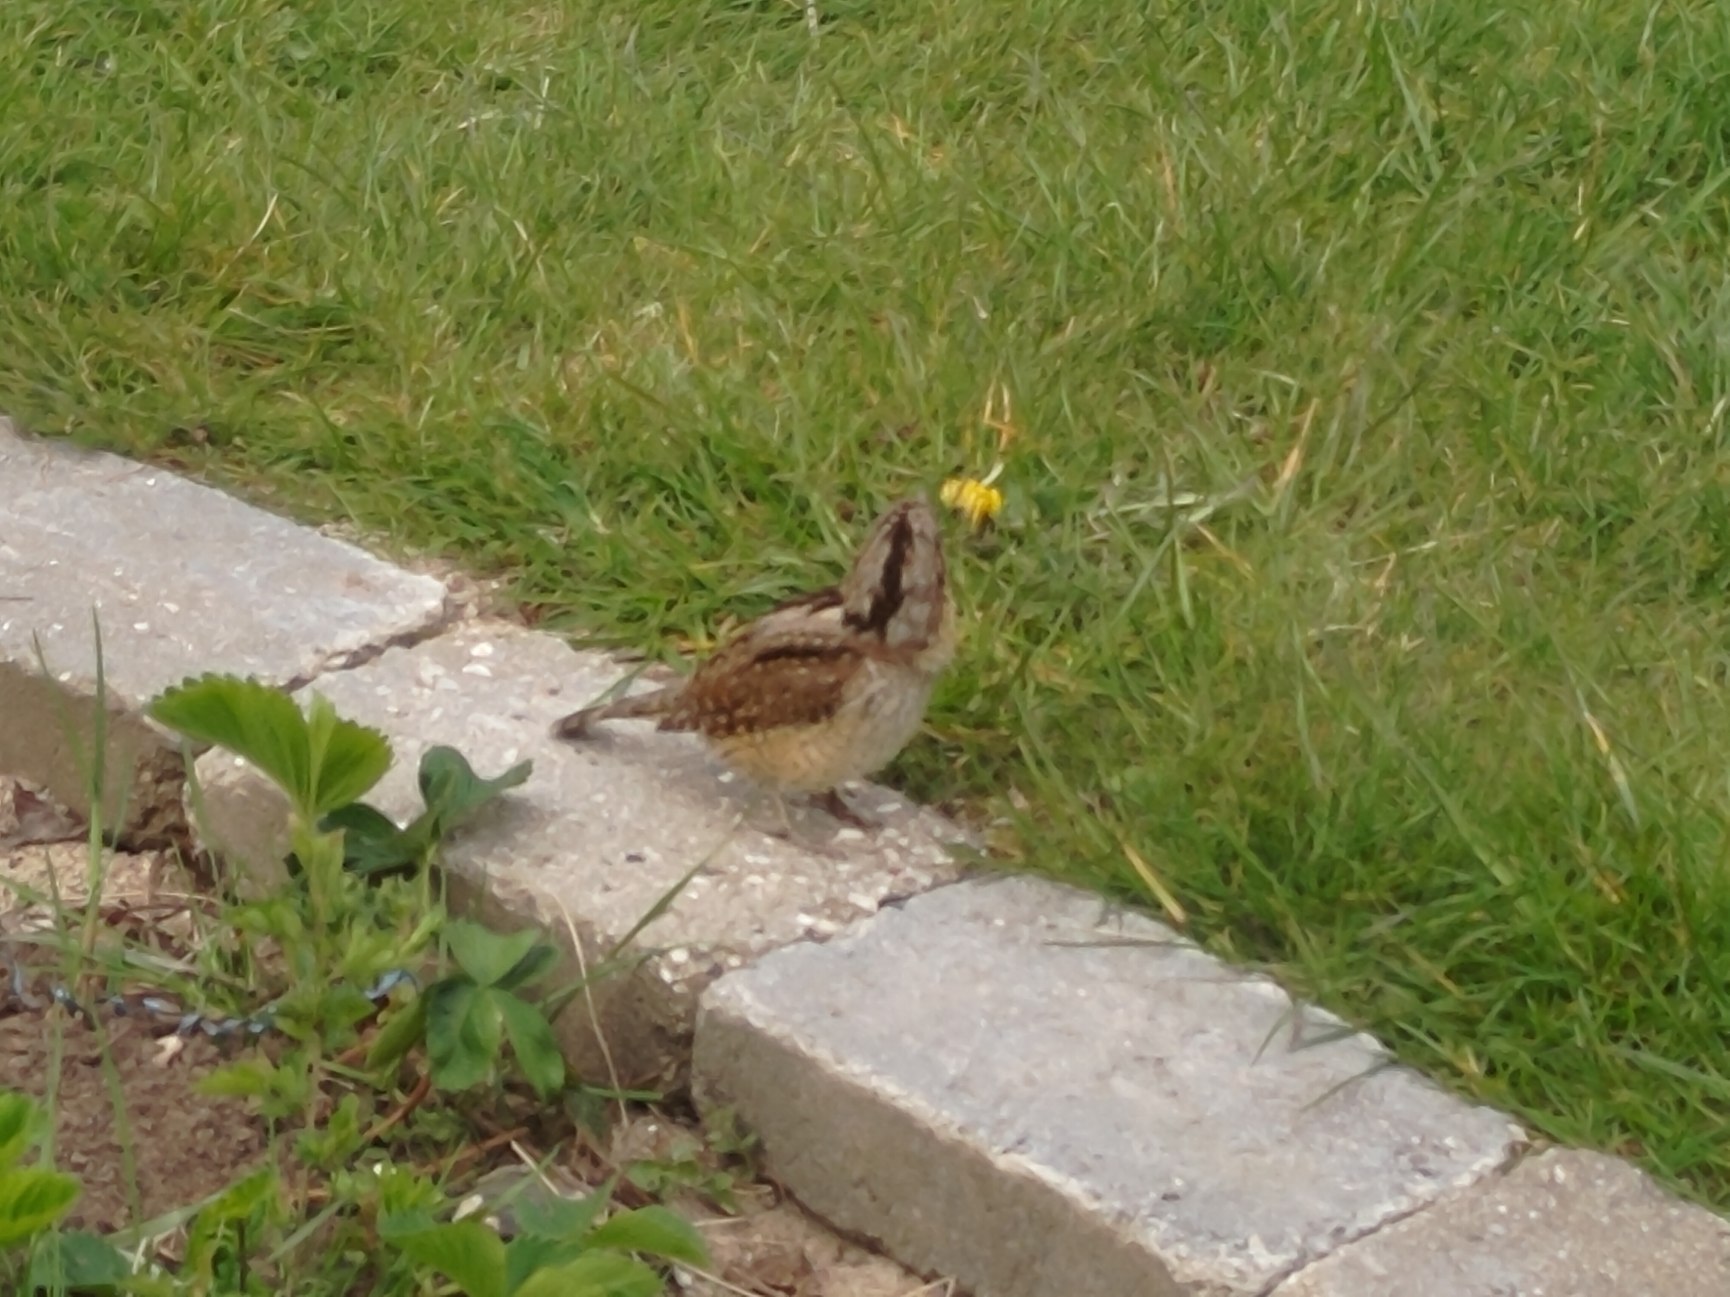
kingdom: Animalia
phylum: Chordata
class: Aves
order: Piciformes
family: Picidae
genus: Jynx
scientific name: Jynx torquilla
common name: Vendehals
